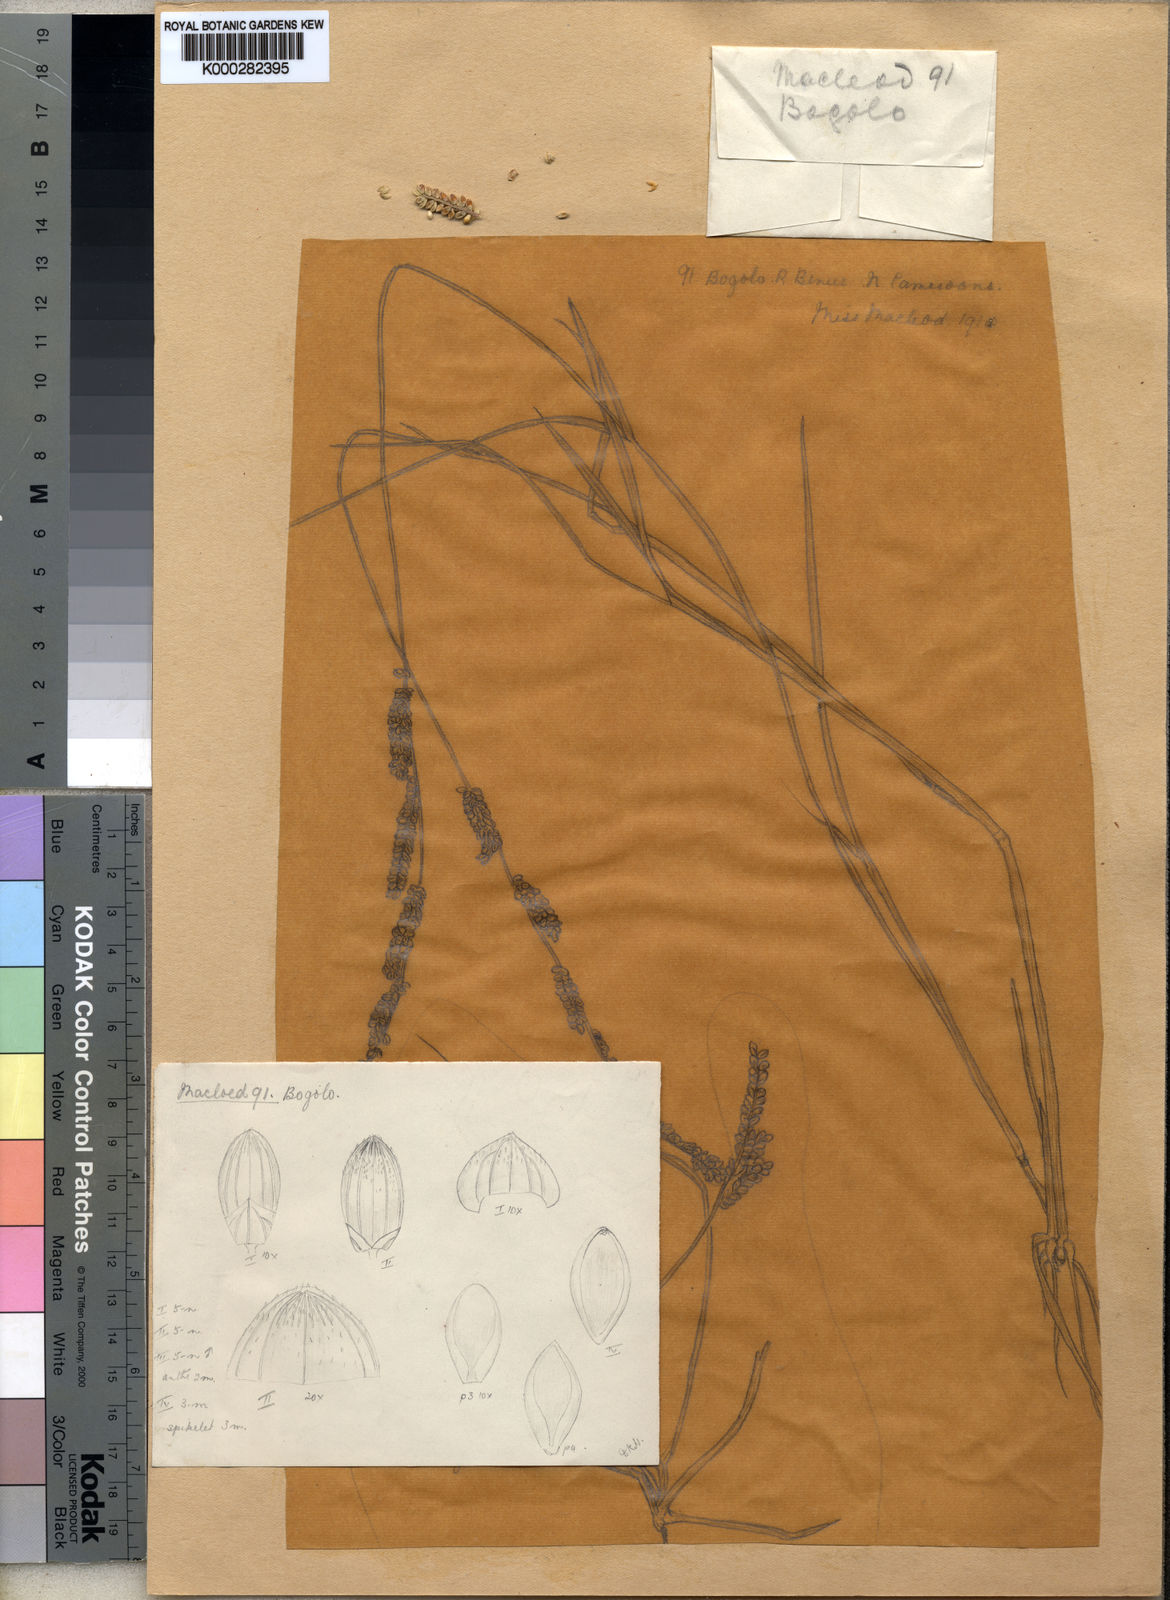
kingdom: Plantae
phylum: Tracheophyta
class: Liliopsida
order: Poales
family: Poaceae
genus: Echinochloa
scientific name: Echinochloa obtusiflora
